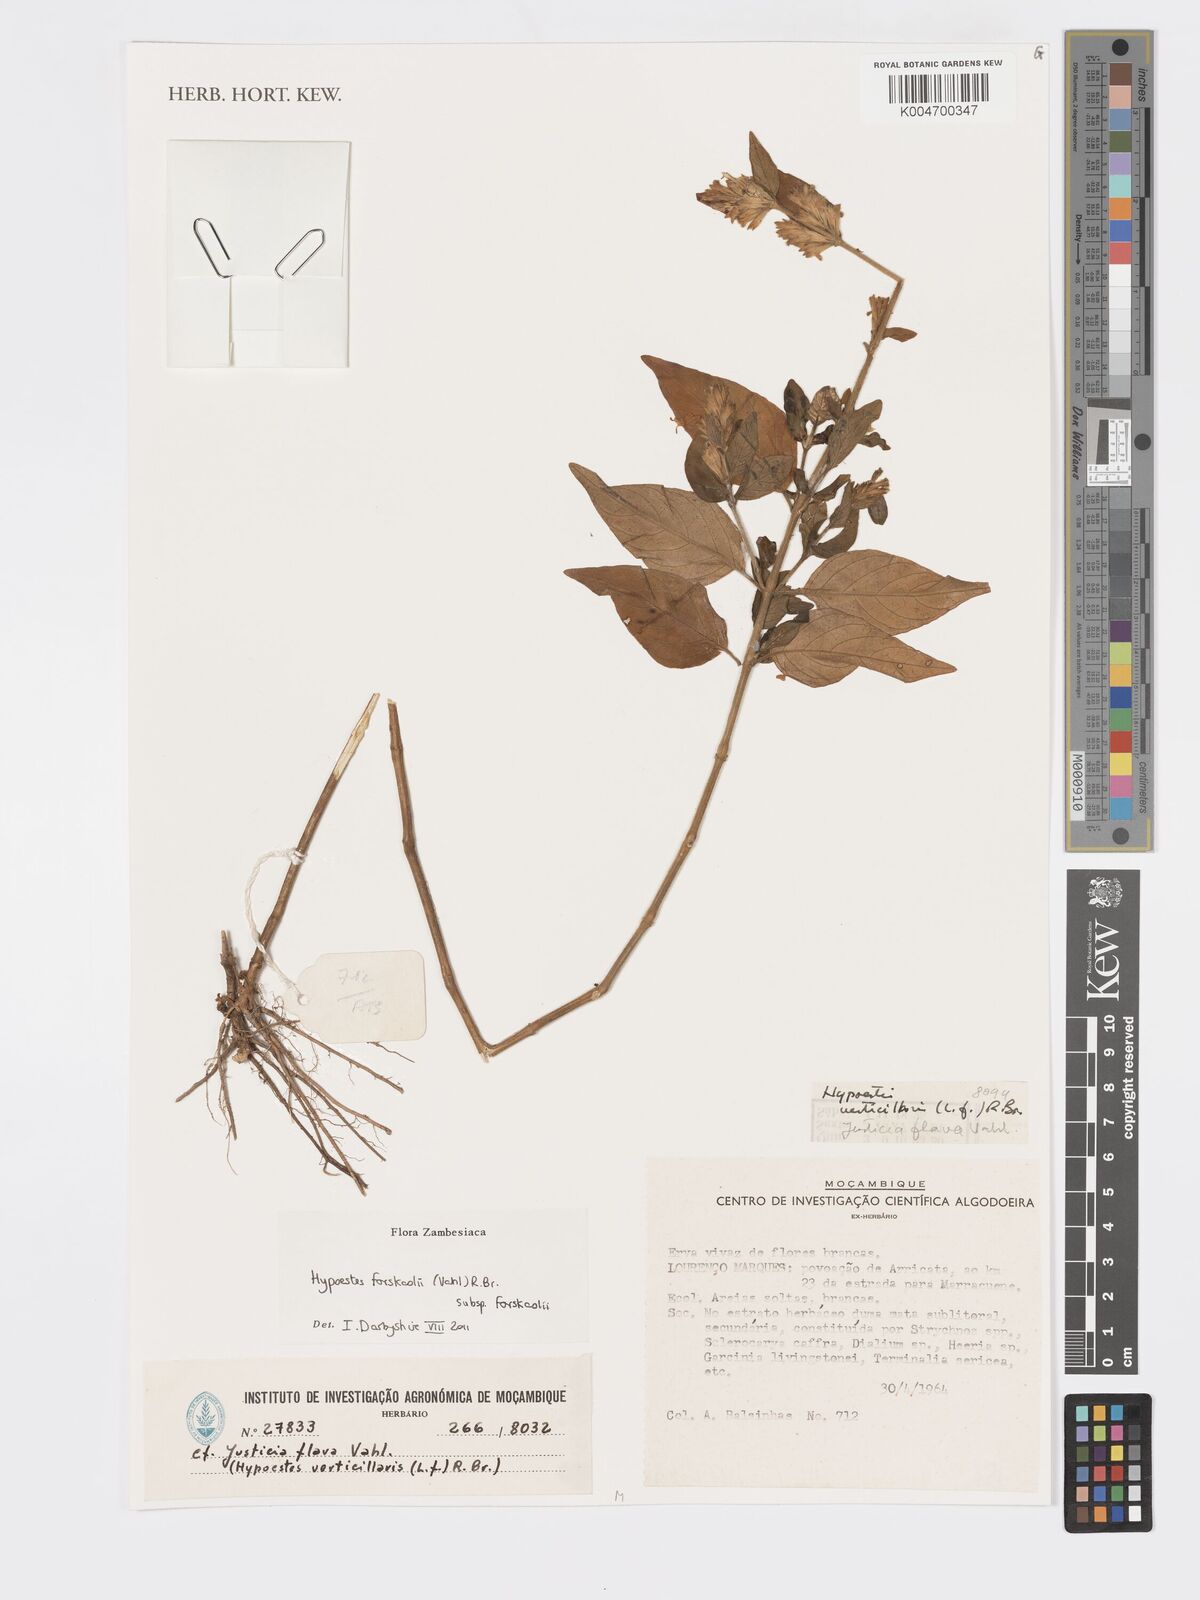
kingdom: Plantae
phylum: Tracheophyta
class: Magnoliopsida
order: Lamiales
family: Acanthaceae
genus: Hypoestes
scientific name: Hypoestes forskaolii
